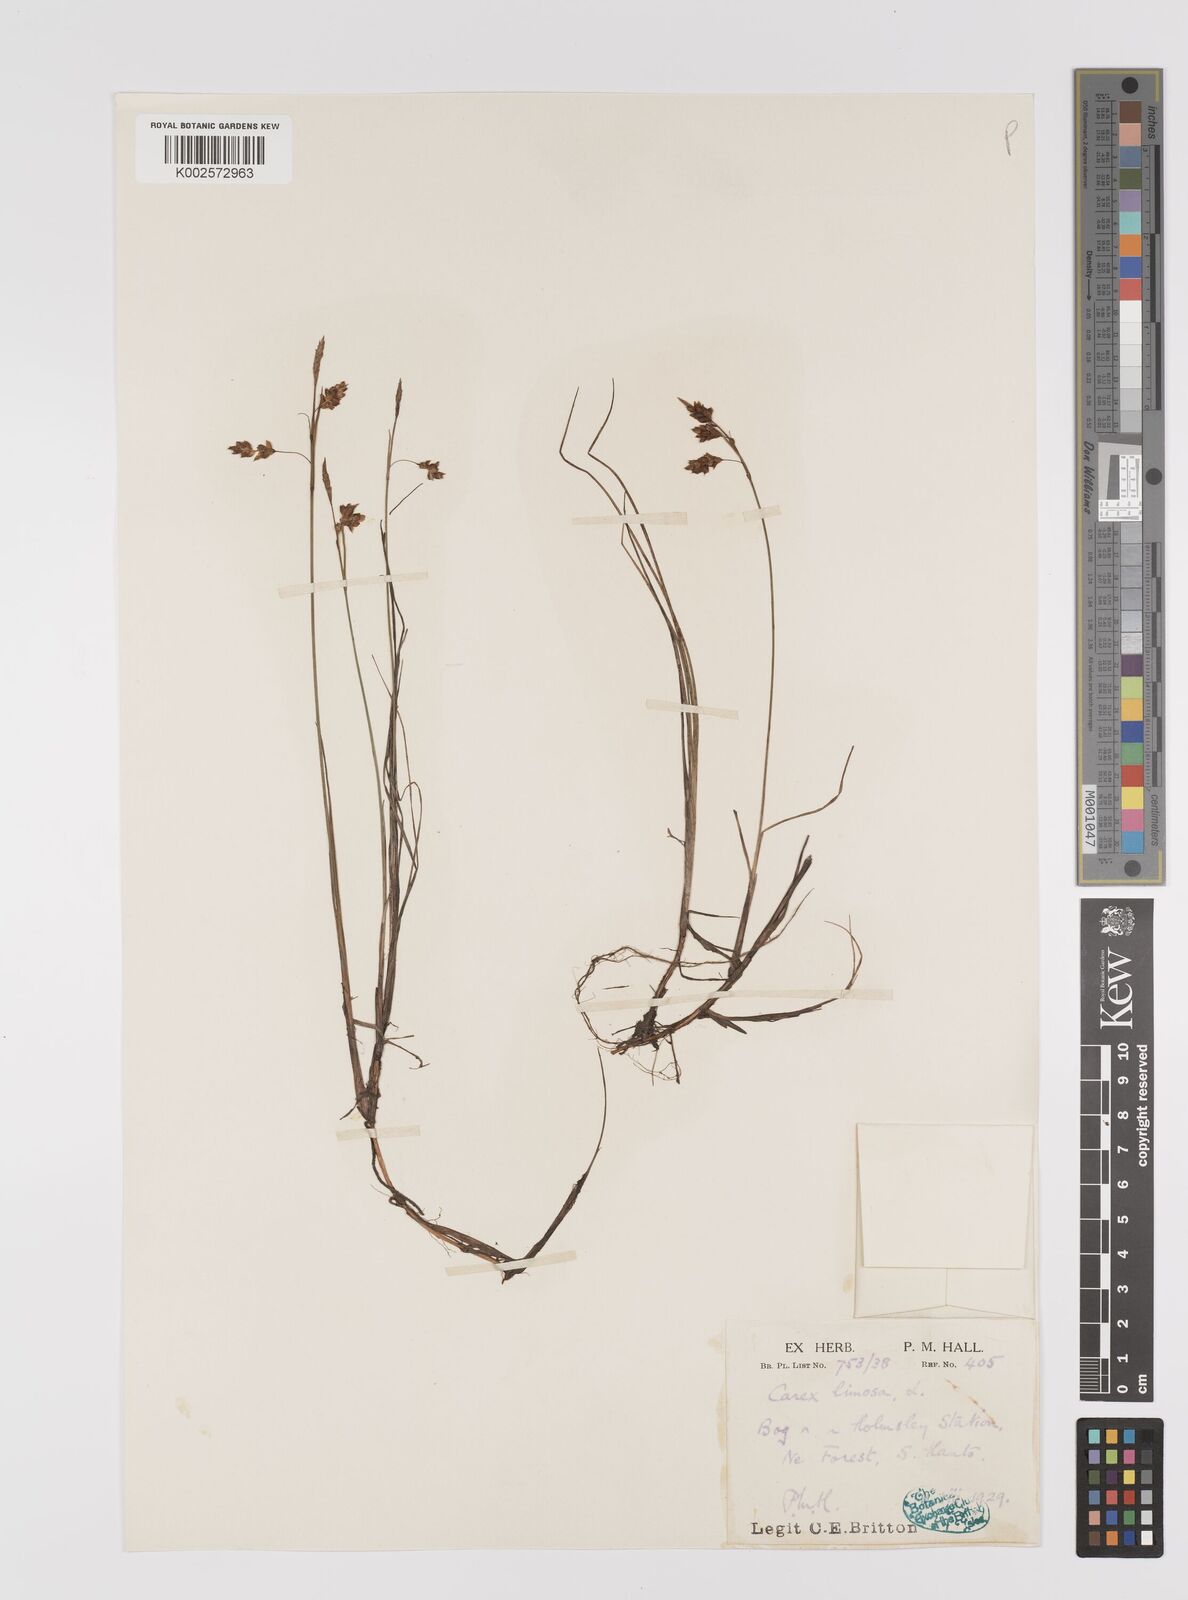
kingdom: Plantae
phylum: Tracheophyta
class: Liliopsida
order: Poales
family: Cyperaceae
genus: Carex
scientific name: Carex limosa
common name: Bog sedge
